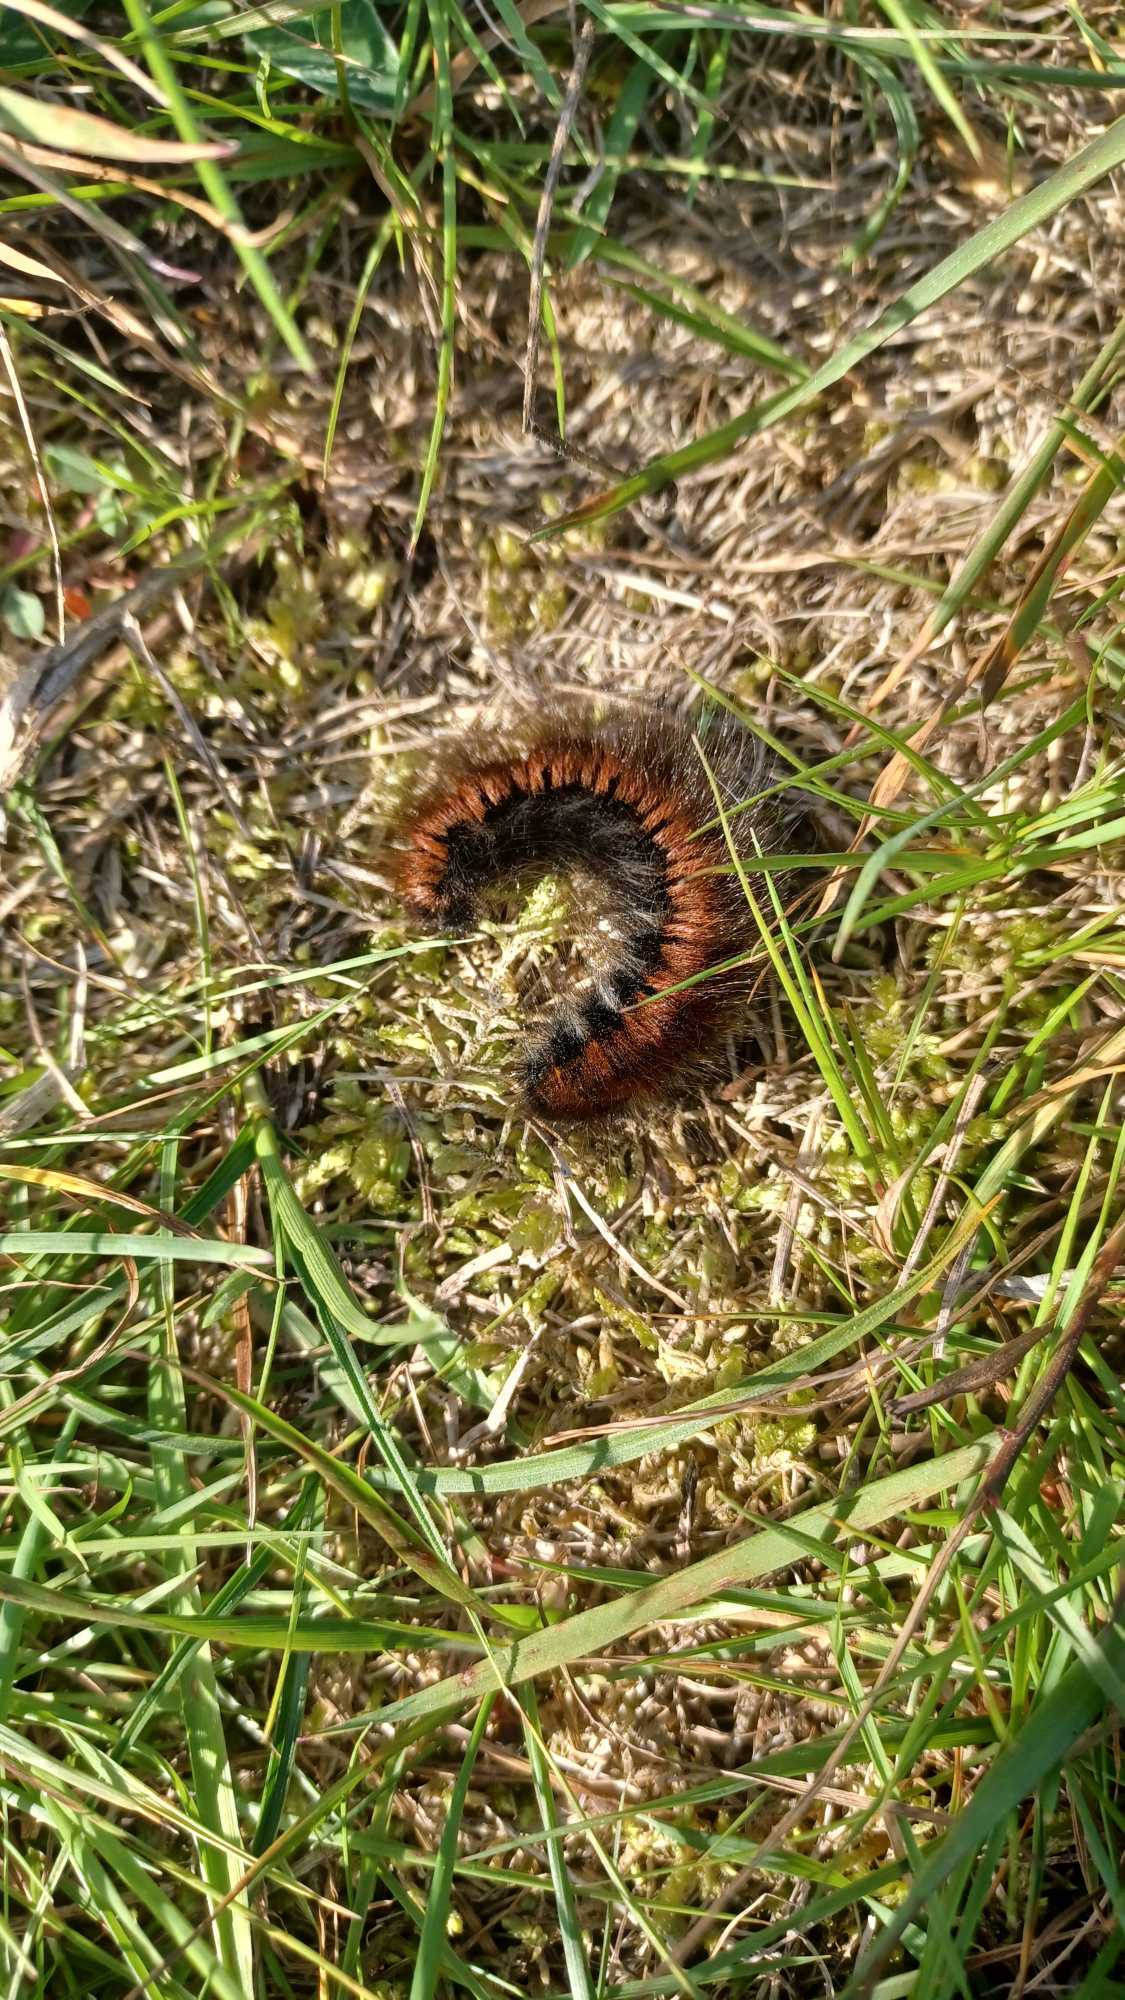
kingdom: Animalia
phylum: Arthropoda
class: Insecta
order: Lepidoptera
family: Lasiocampidae
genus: Macrothylacia
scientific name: Macrothylacia rubi
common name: Brombærspinder
